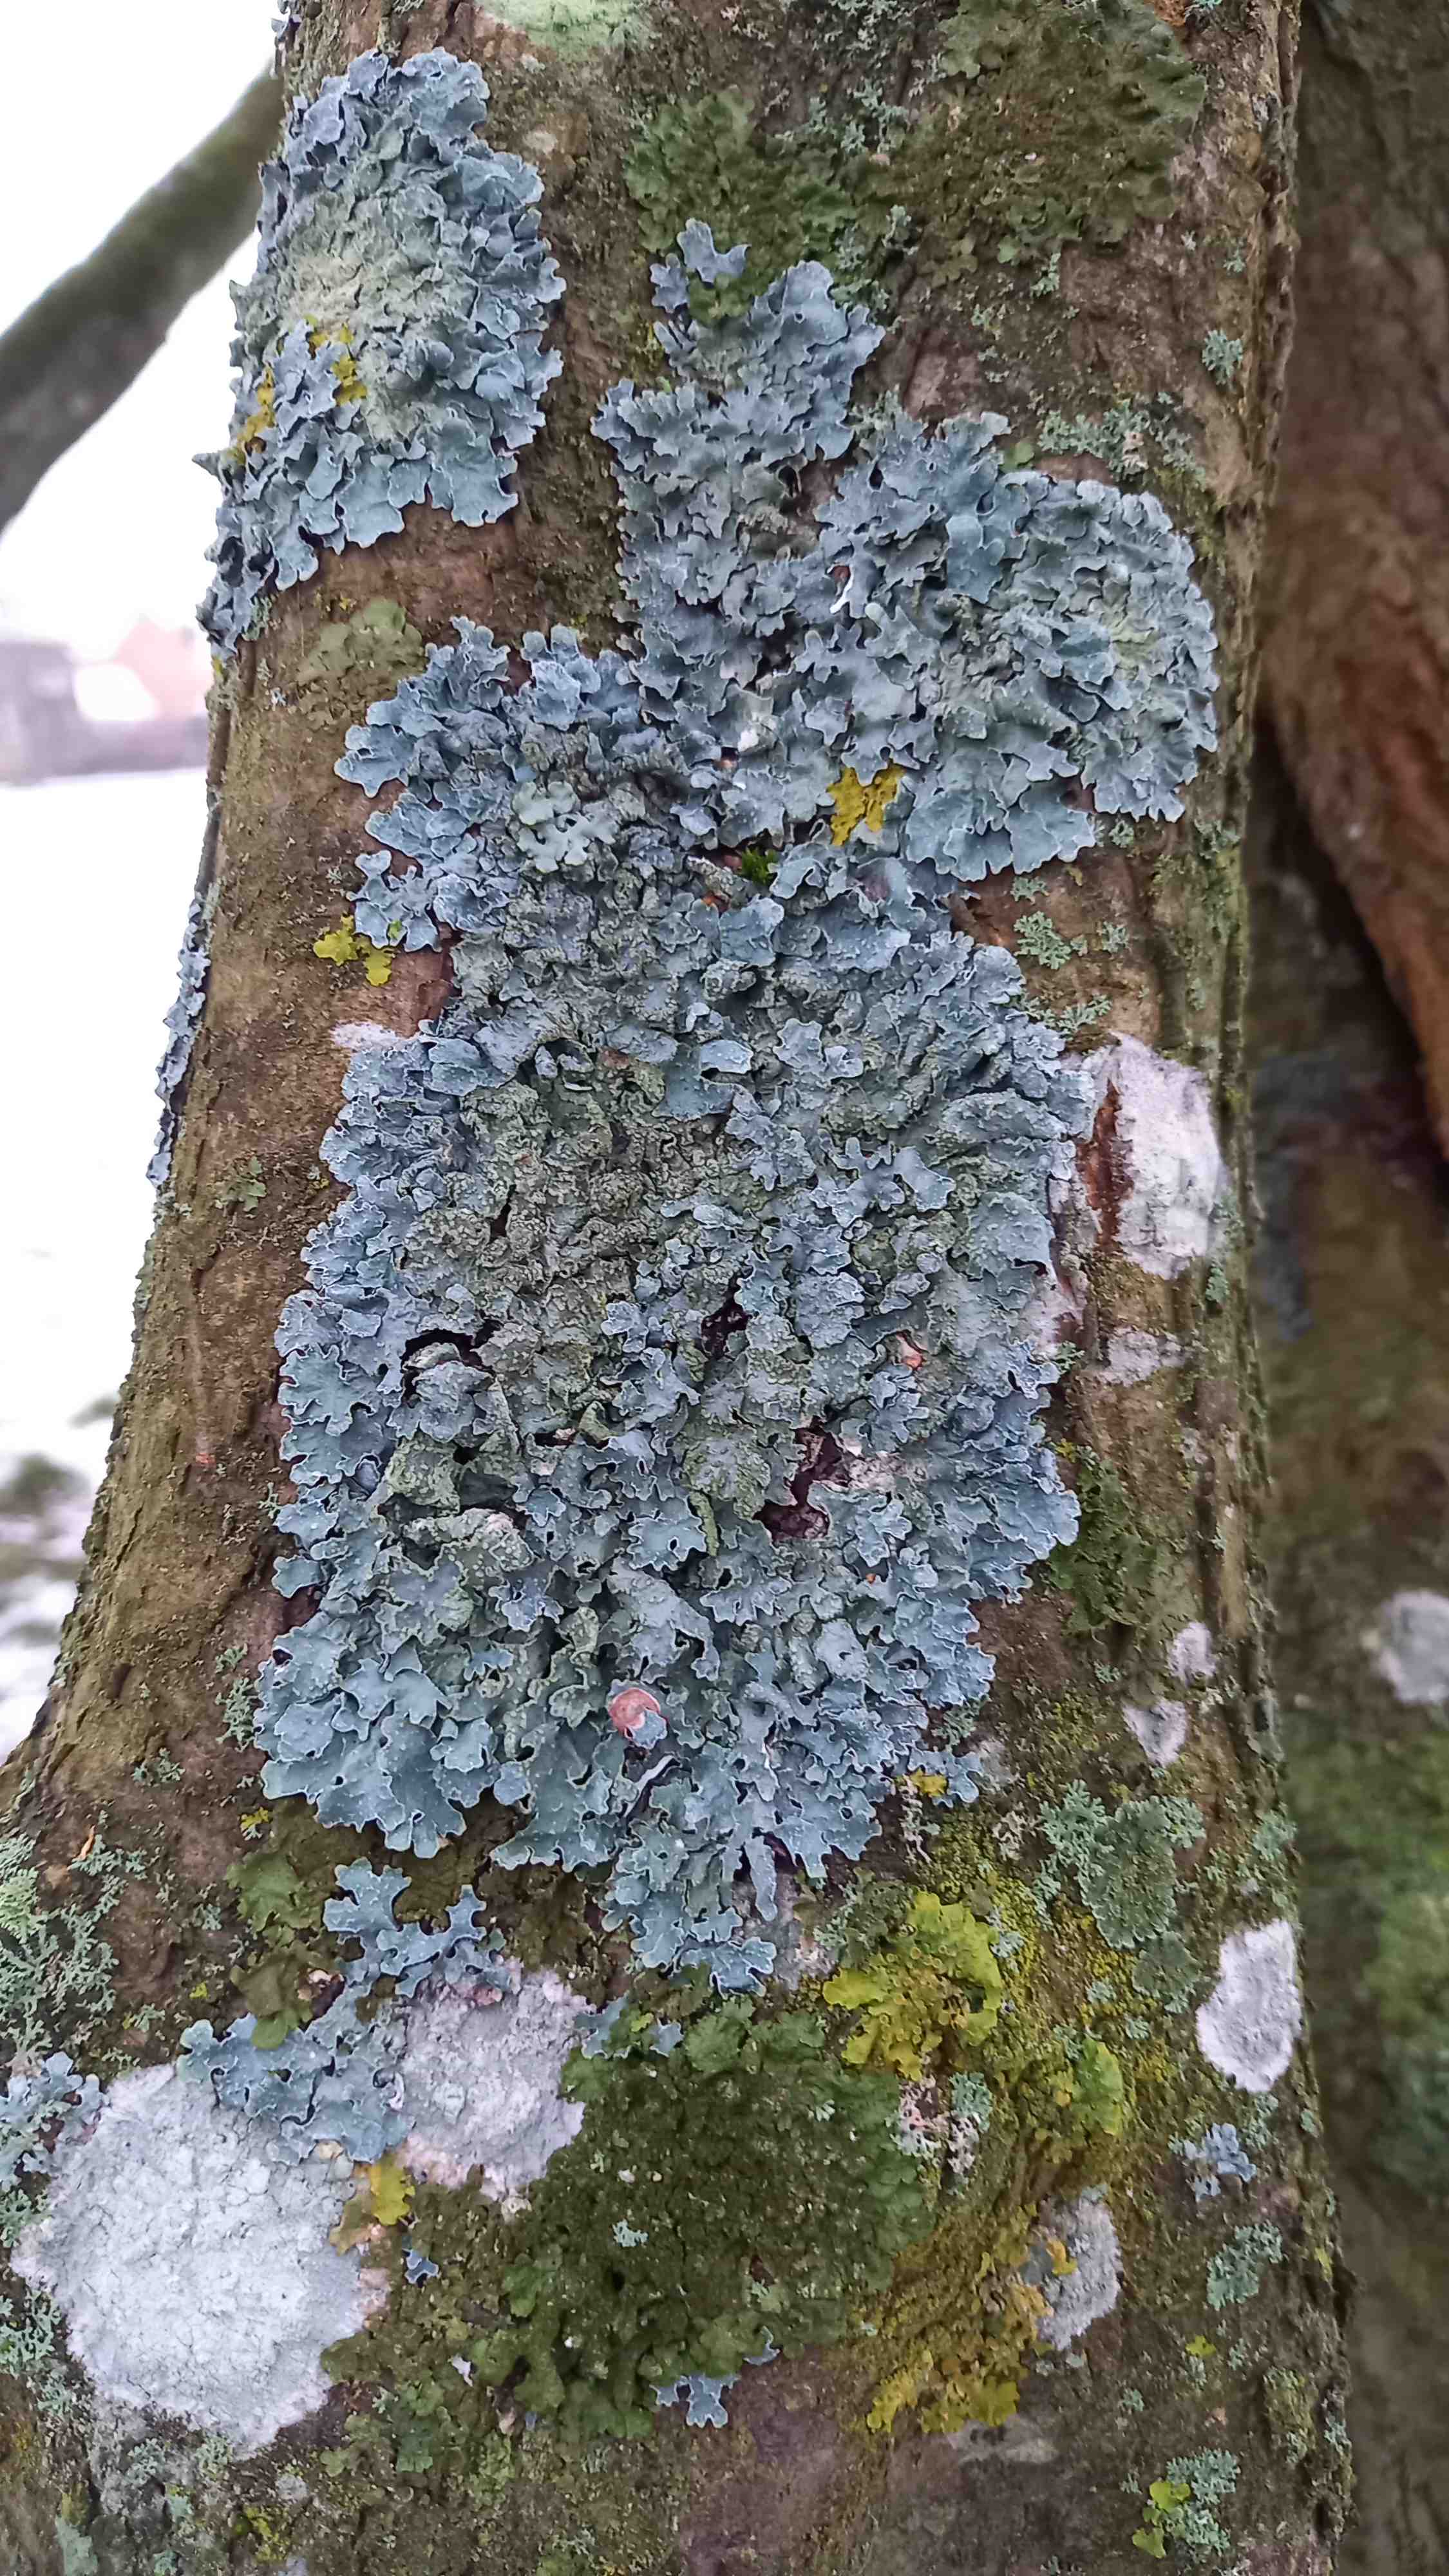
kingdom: Fungi
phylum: Ascomycota
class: Lecanoromycetes
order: Lecanorales
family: Parmeliaceae
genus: Parmelia
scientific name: Parmelia sulcata
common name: rynket skållav
